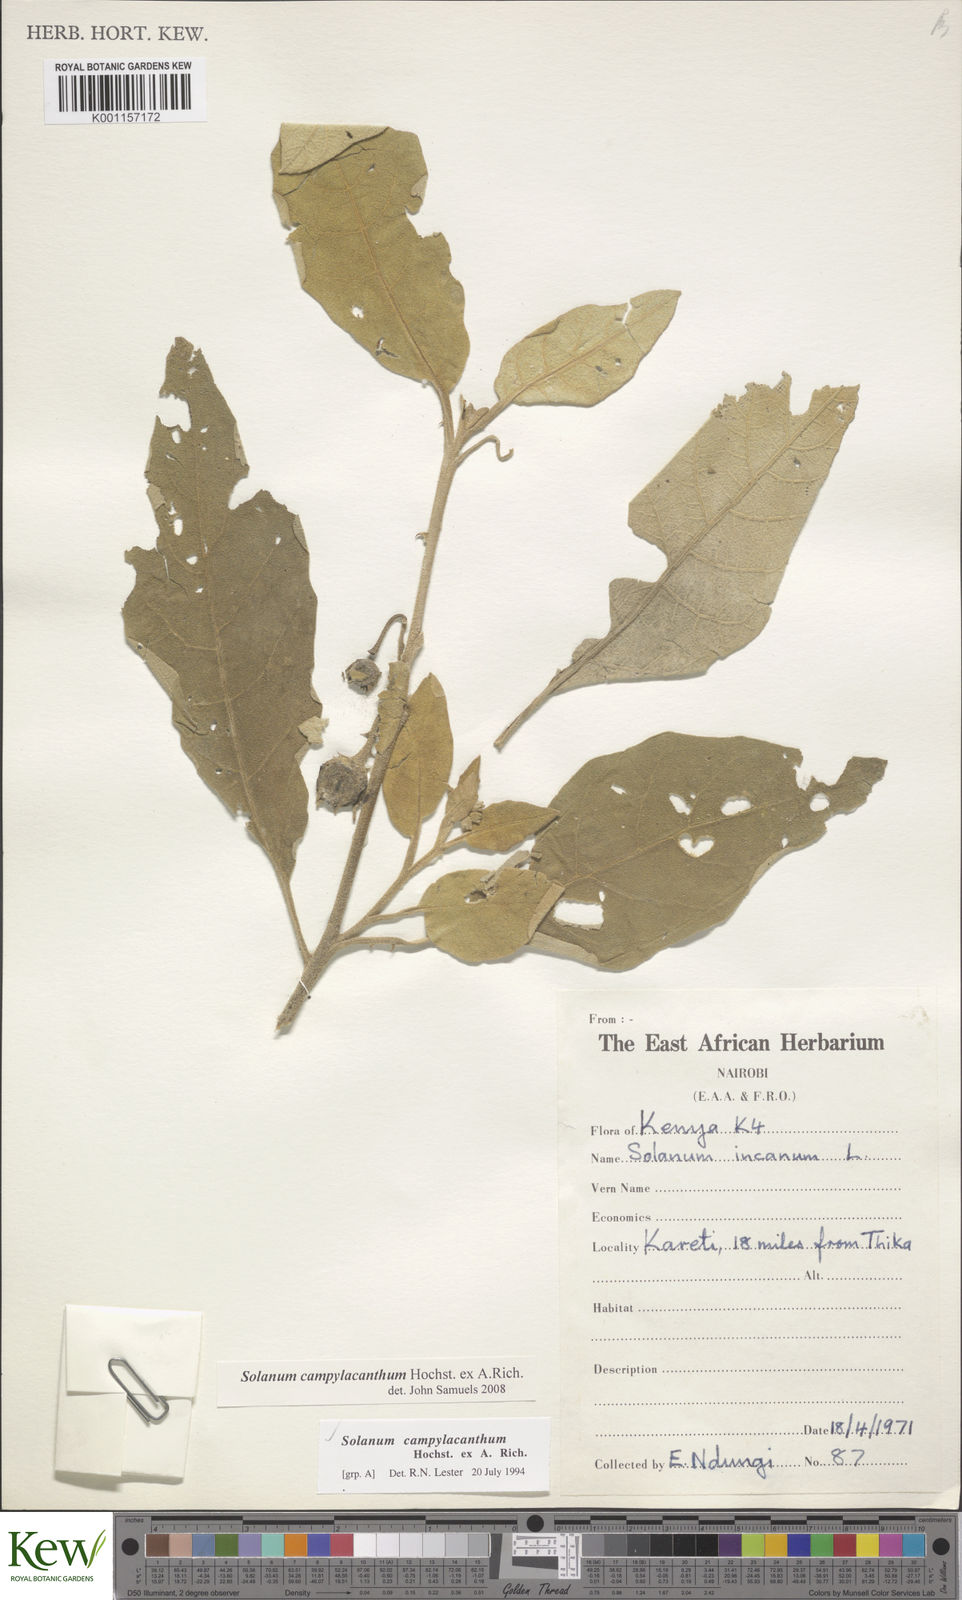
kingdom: Plantae
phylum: Tracheophyta
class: Magnoliopsida
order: Solanales
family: Solanaceae
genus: Solanum
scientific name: Solanum campylacanthum
